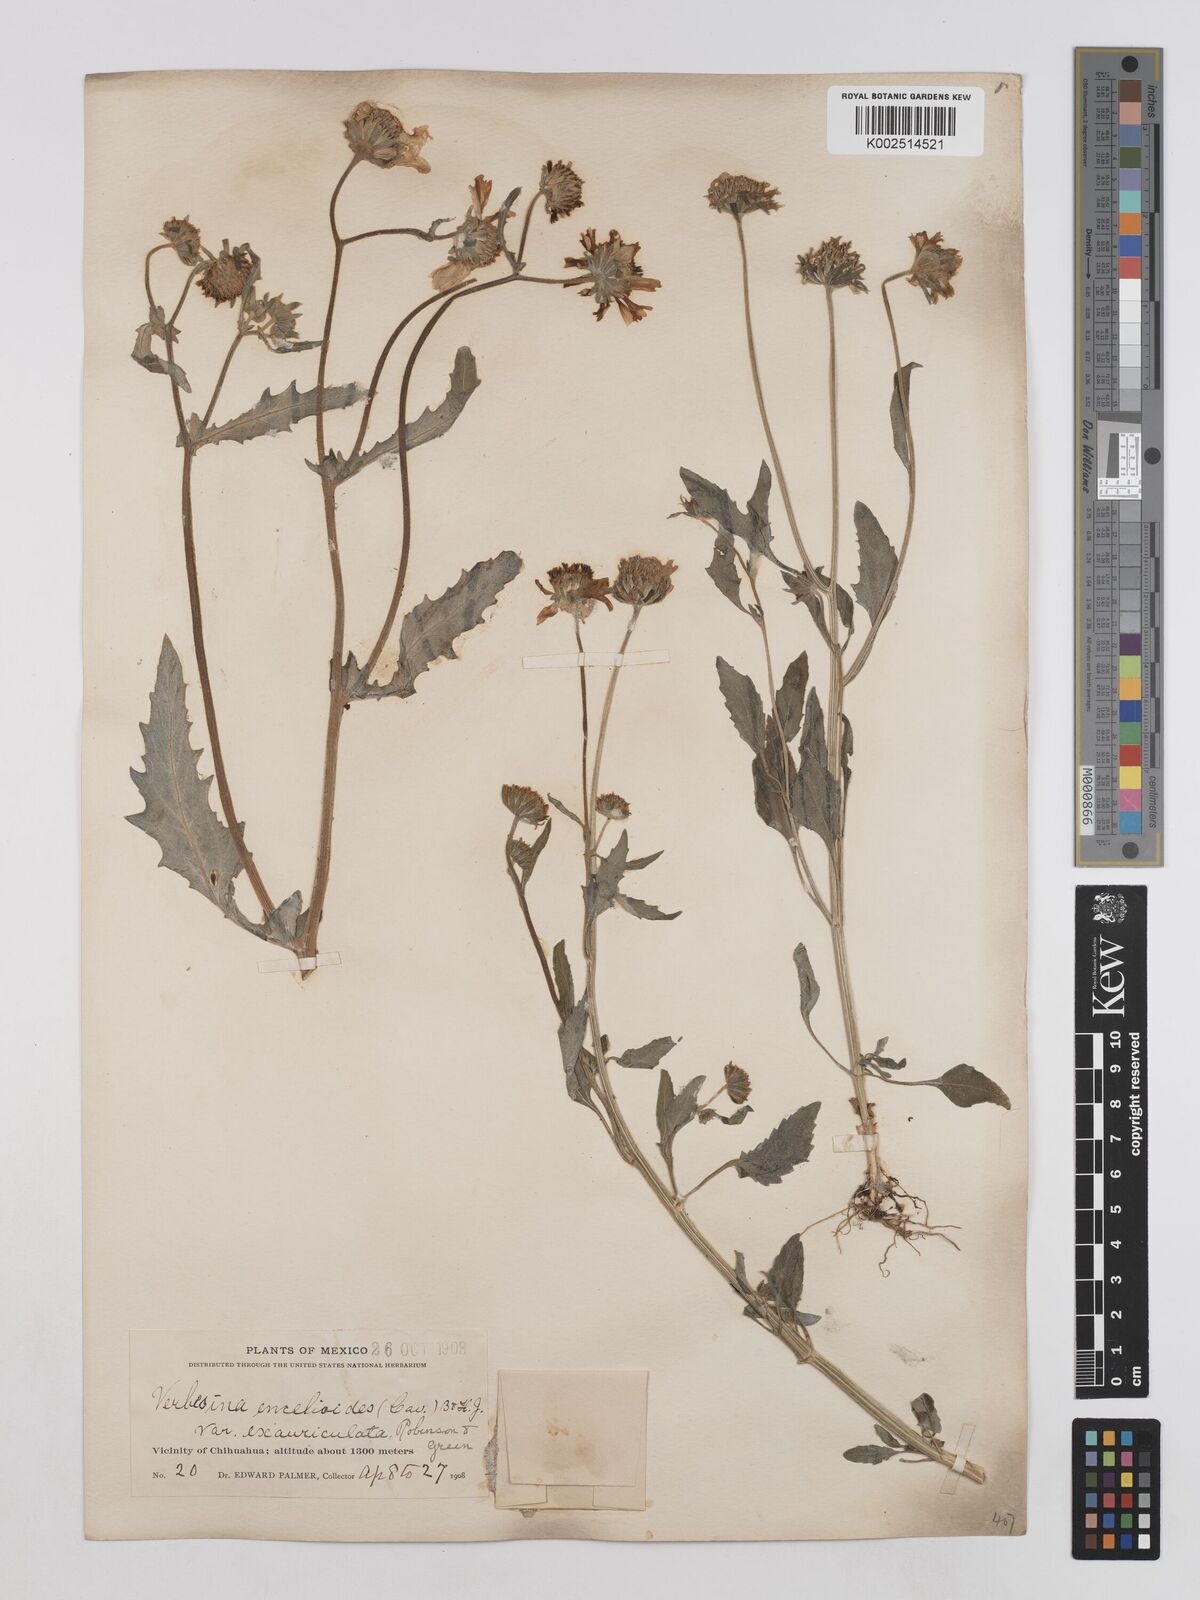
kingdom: Plantae
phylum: Tracheophyta
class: Magnoliopsida
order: Asterales
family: Asteraceae
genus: Verbesina
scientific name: Verbesina encelioides
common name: Golden crownbeard
